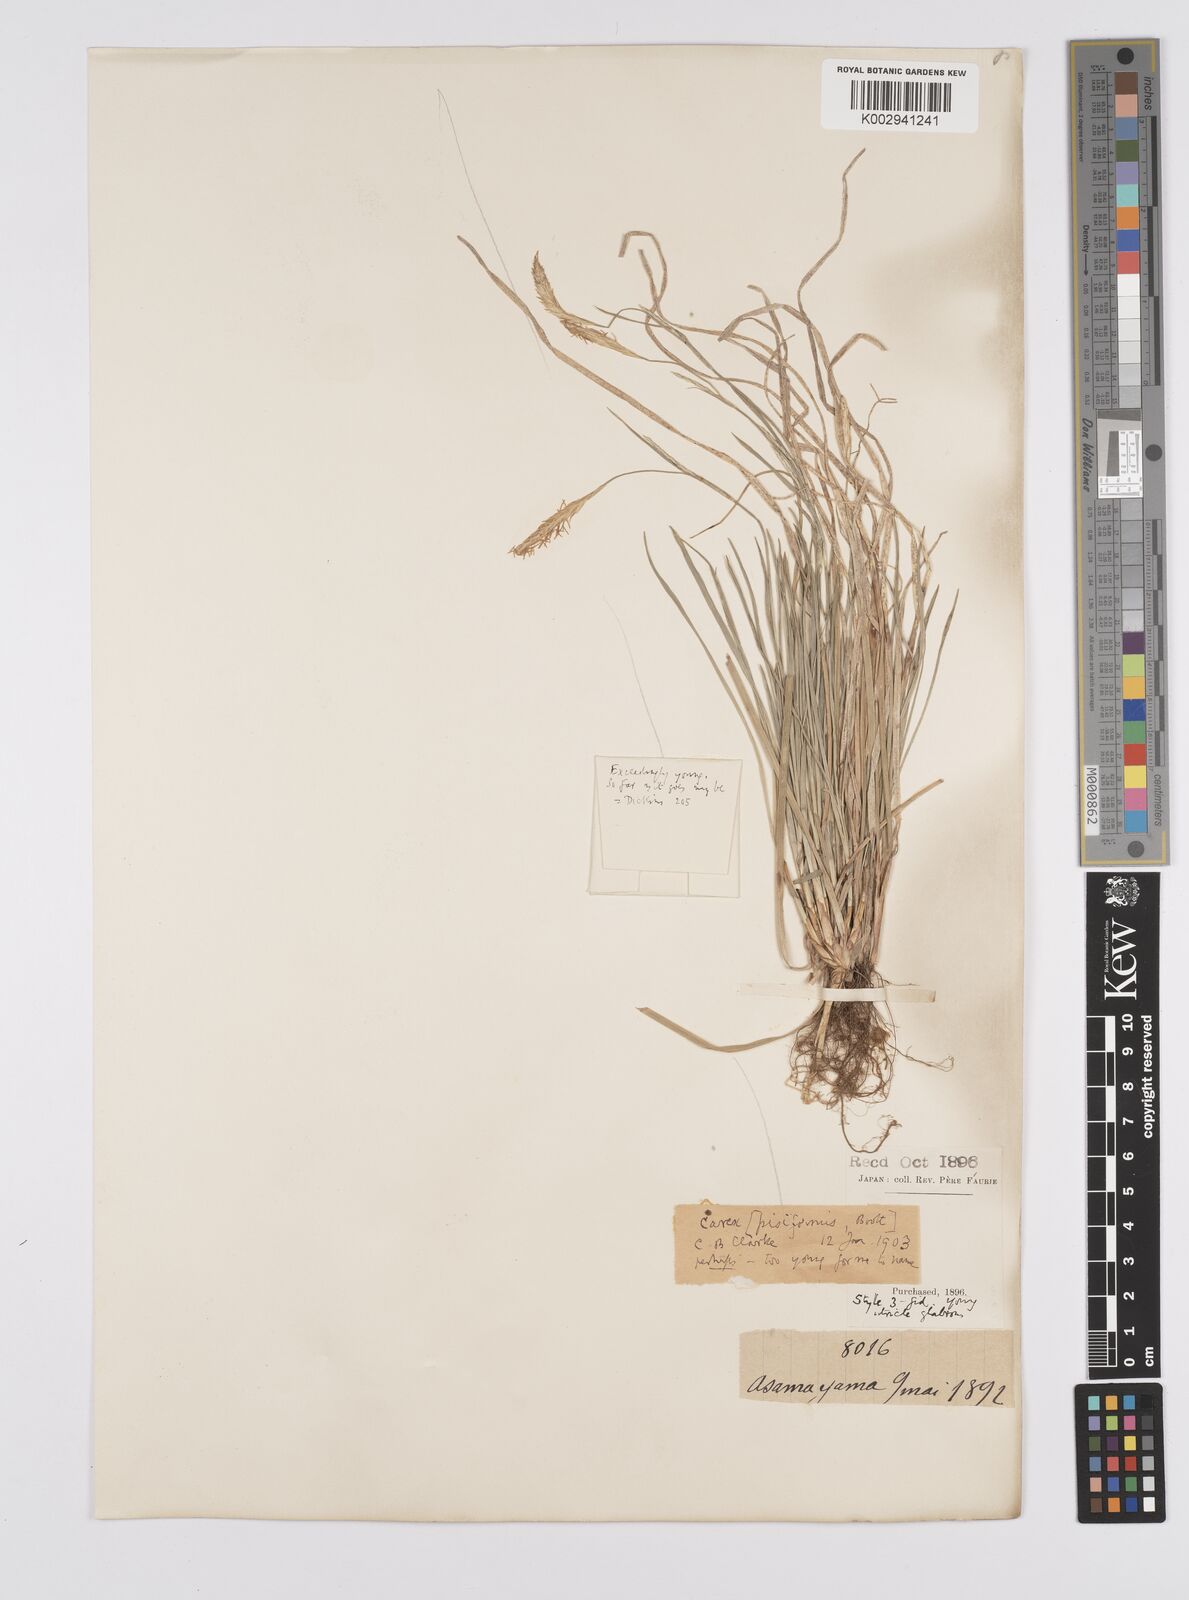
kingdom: Plantae
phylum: Tracheophyta
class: Liliopsida
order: Poales
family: Cyperaceae
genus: Carex
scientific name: Carex pisiformis
